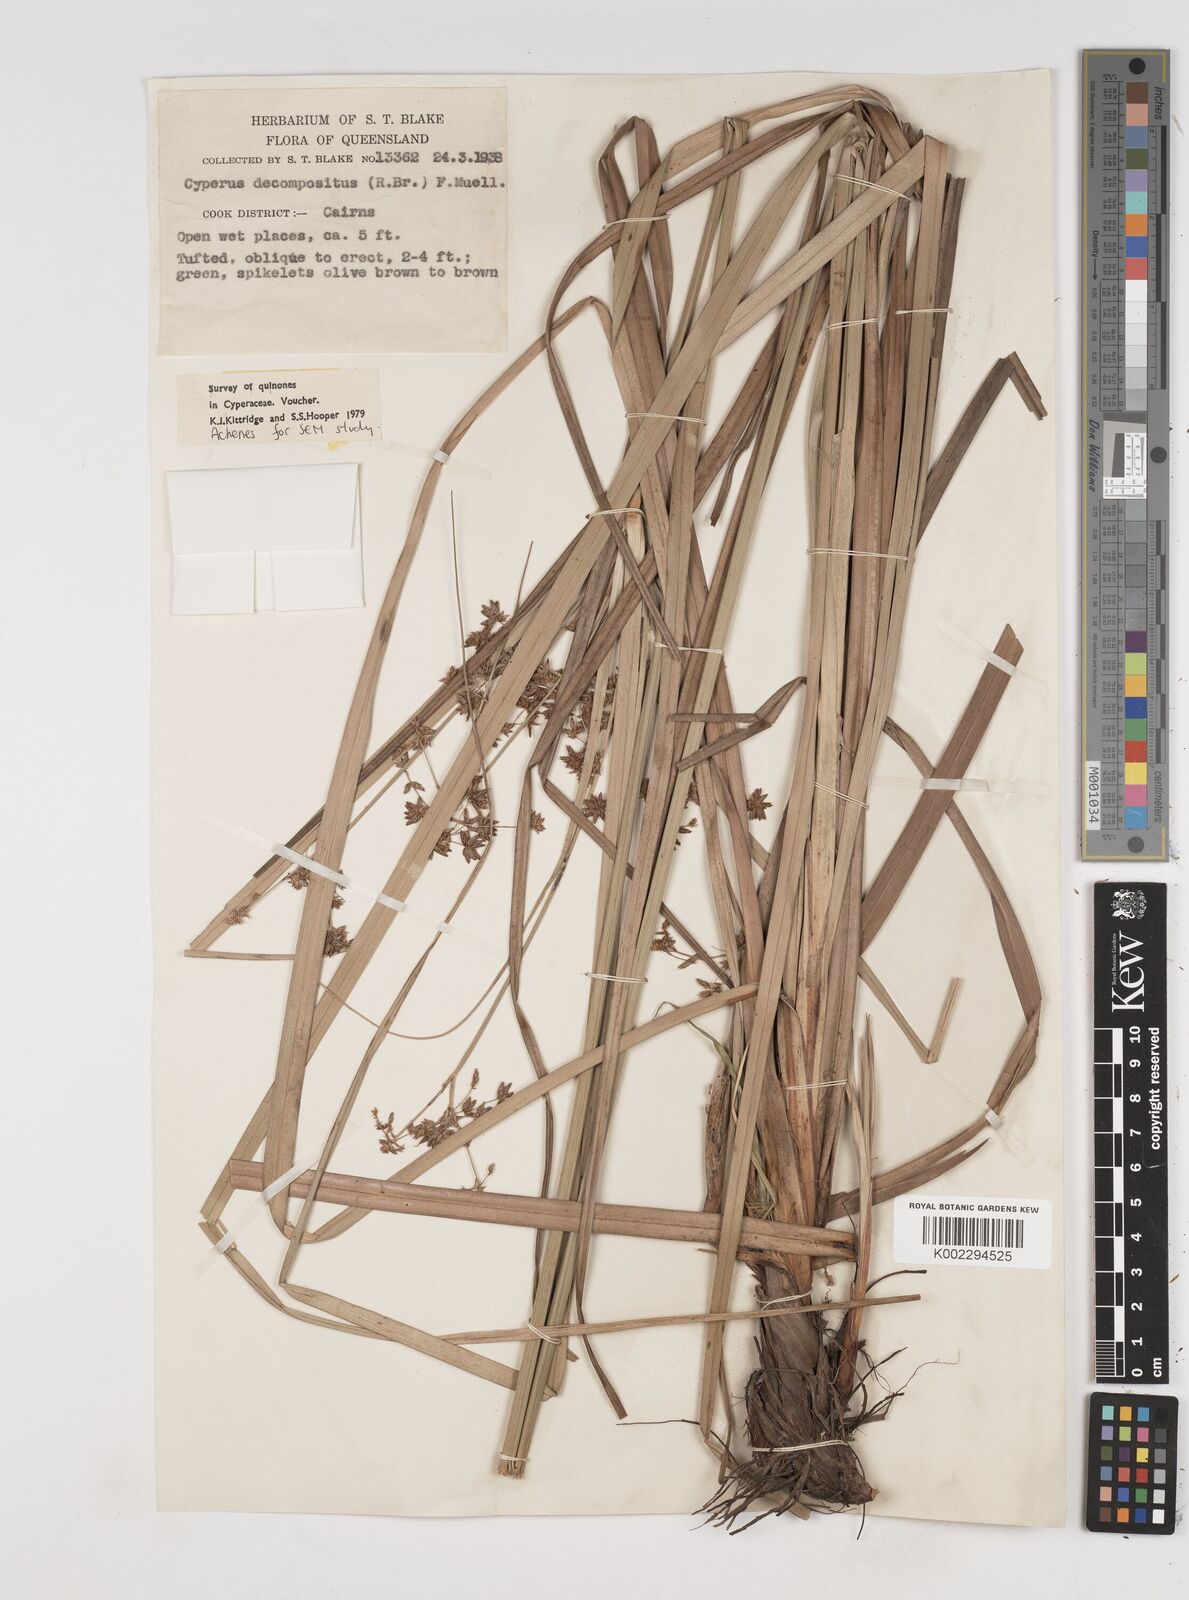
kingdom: Plantae
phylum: Tracheophyta
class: Liliopsida
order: Poales
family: Cyperaceae
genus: Cyperus
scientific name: Cyperus decompositus
